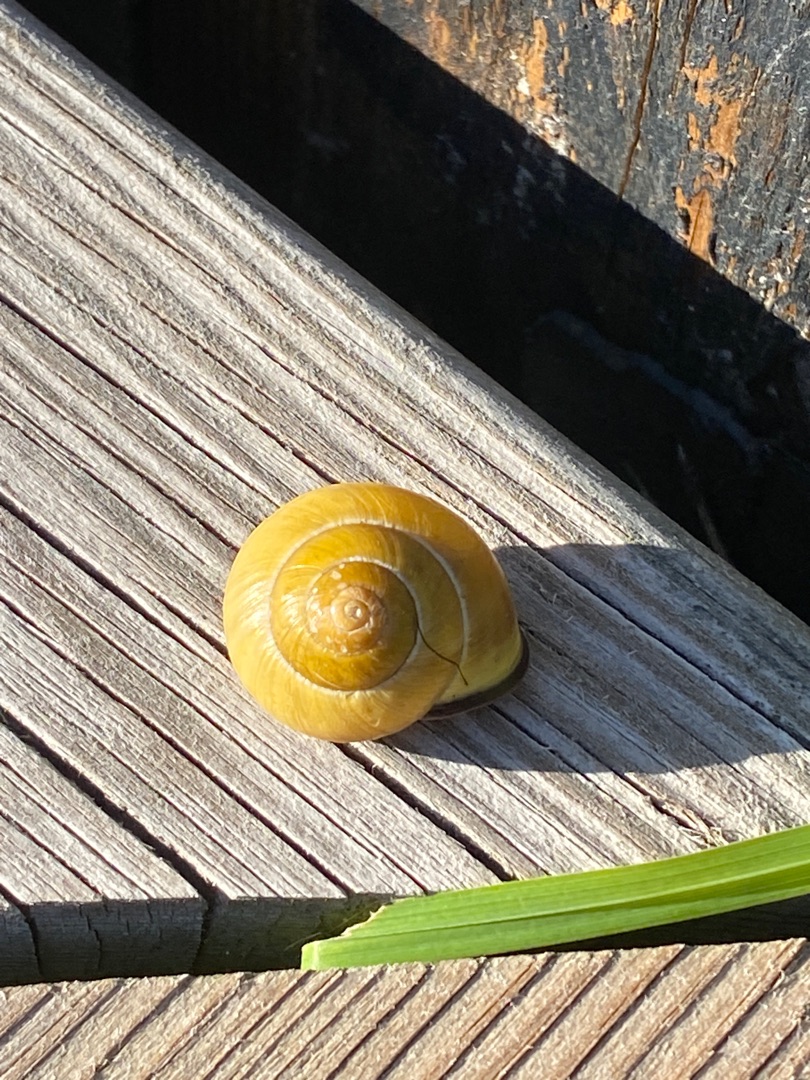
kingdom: Animalia
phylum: Mollusca
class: Gastropoda
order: Stylommatophora
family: Helicidae
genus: Cepaea
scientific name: Cepaea nemoralis
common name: Lundsnegl
